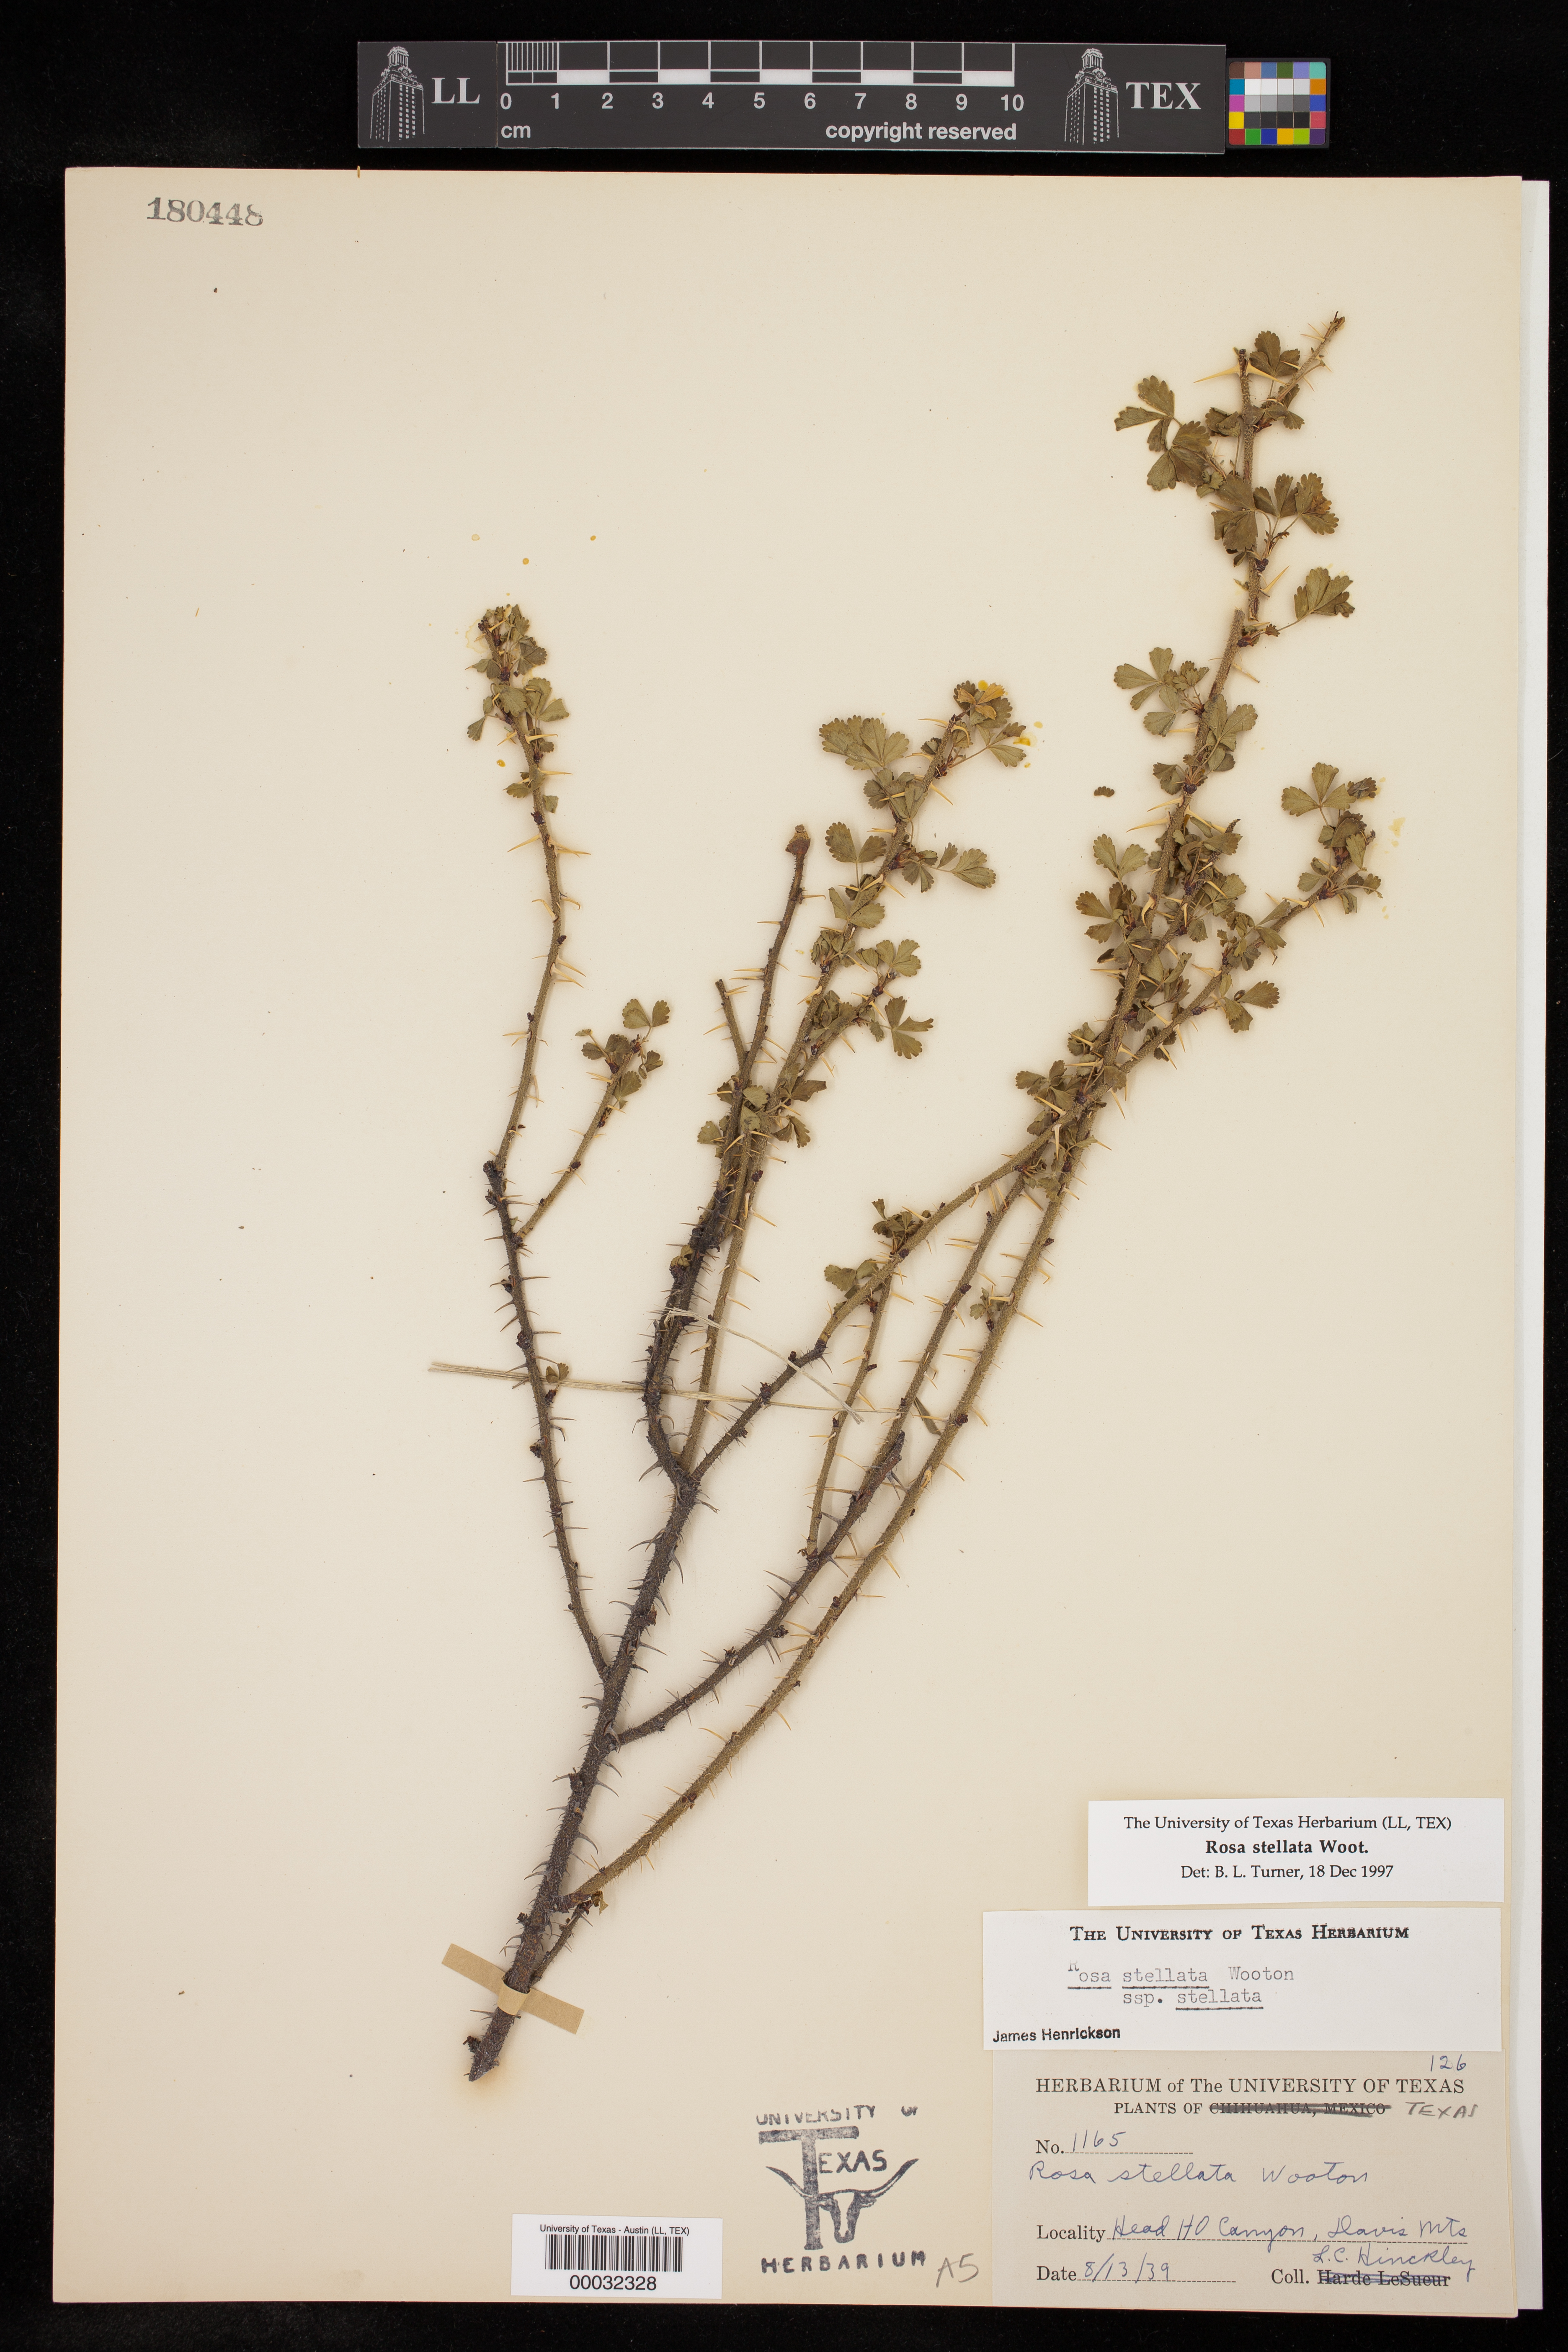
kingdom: Plantae
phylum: Tracheophyta
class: Magnoliopsida
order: Rosales
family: Rosaceae
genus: Rosa
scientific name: Rosa stellata
